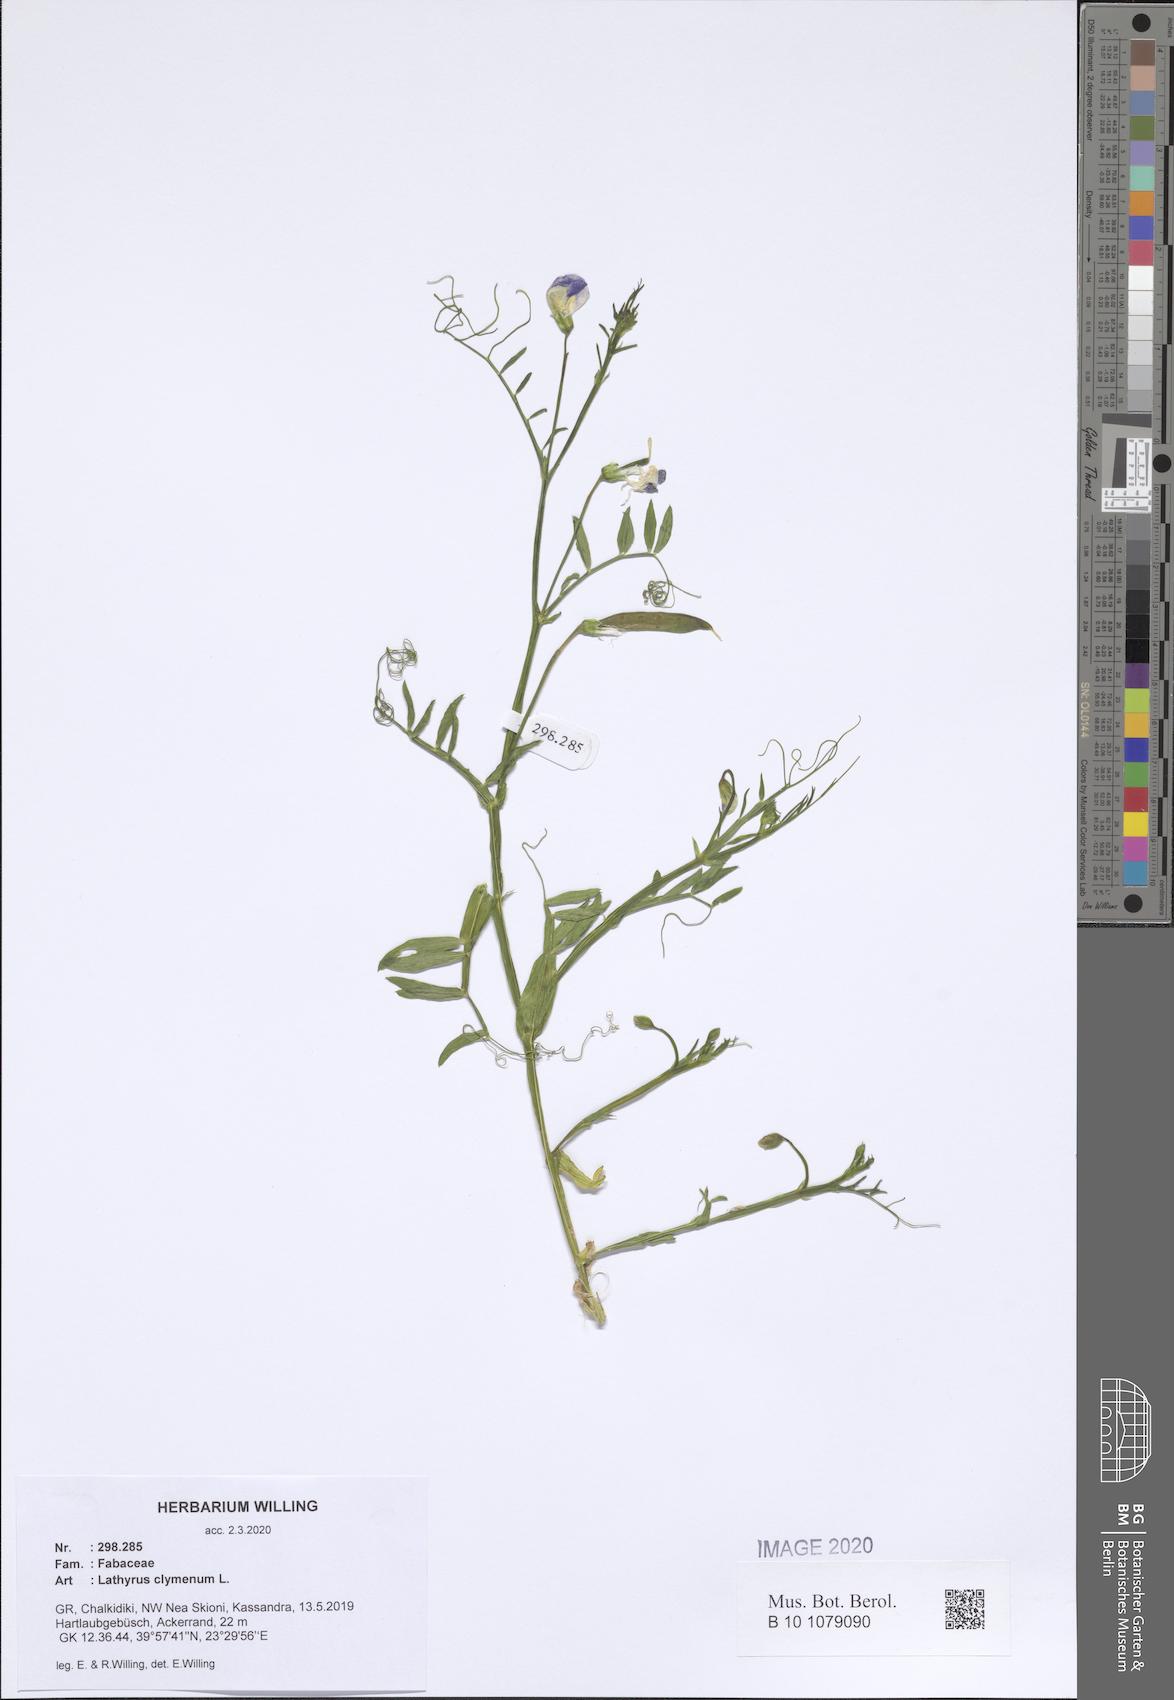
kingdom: Plantae
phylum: Tracheophyta
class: Magnoliopsida
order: Fabales
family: Fabaceae
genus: Lathyrus
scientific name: Lathyrus clymenum
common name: Spanish vetchling
